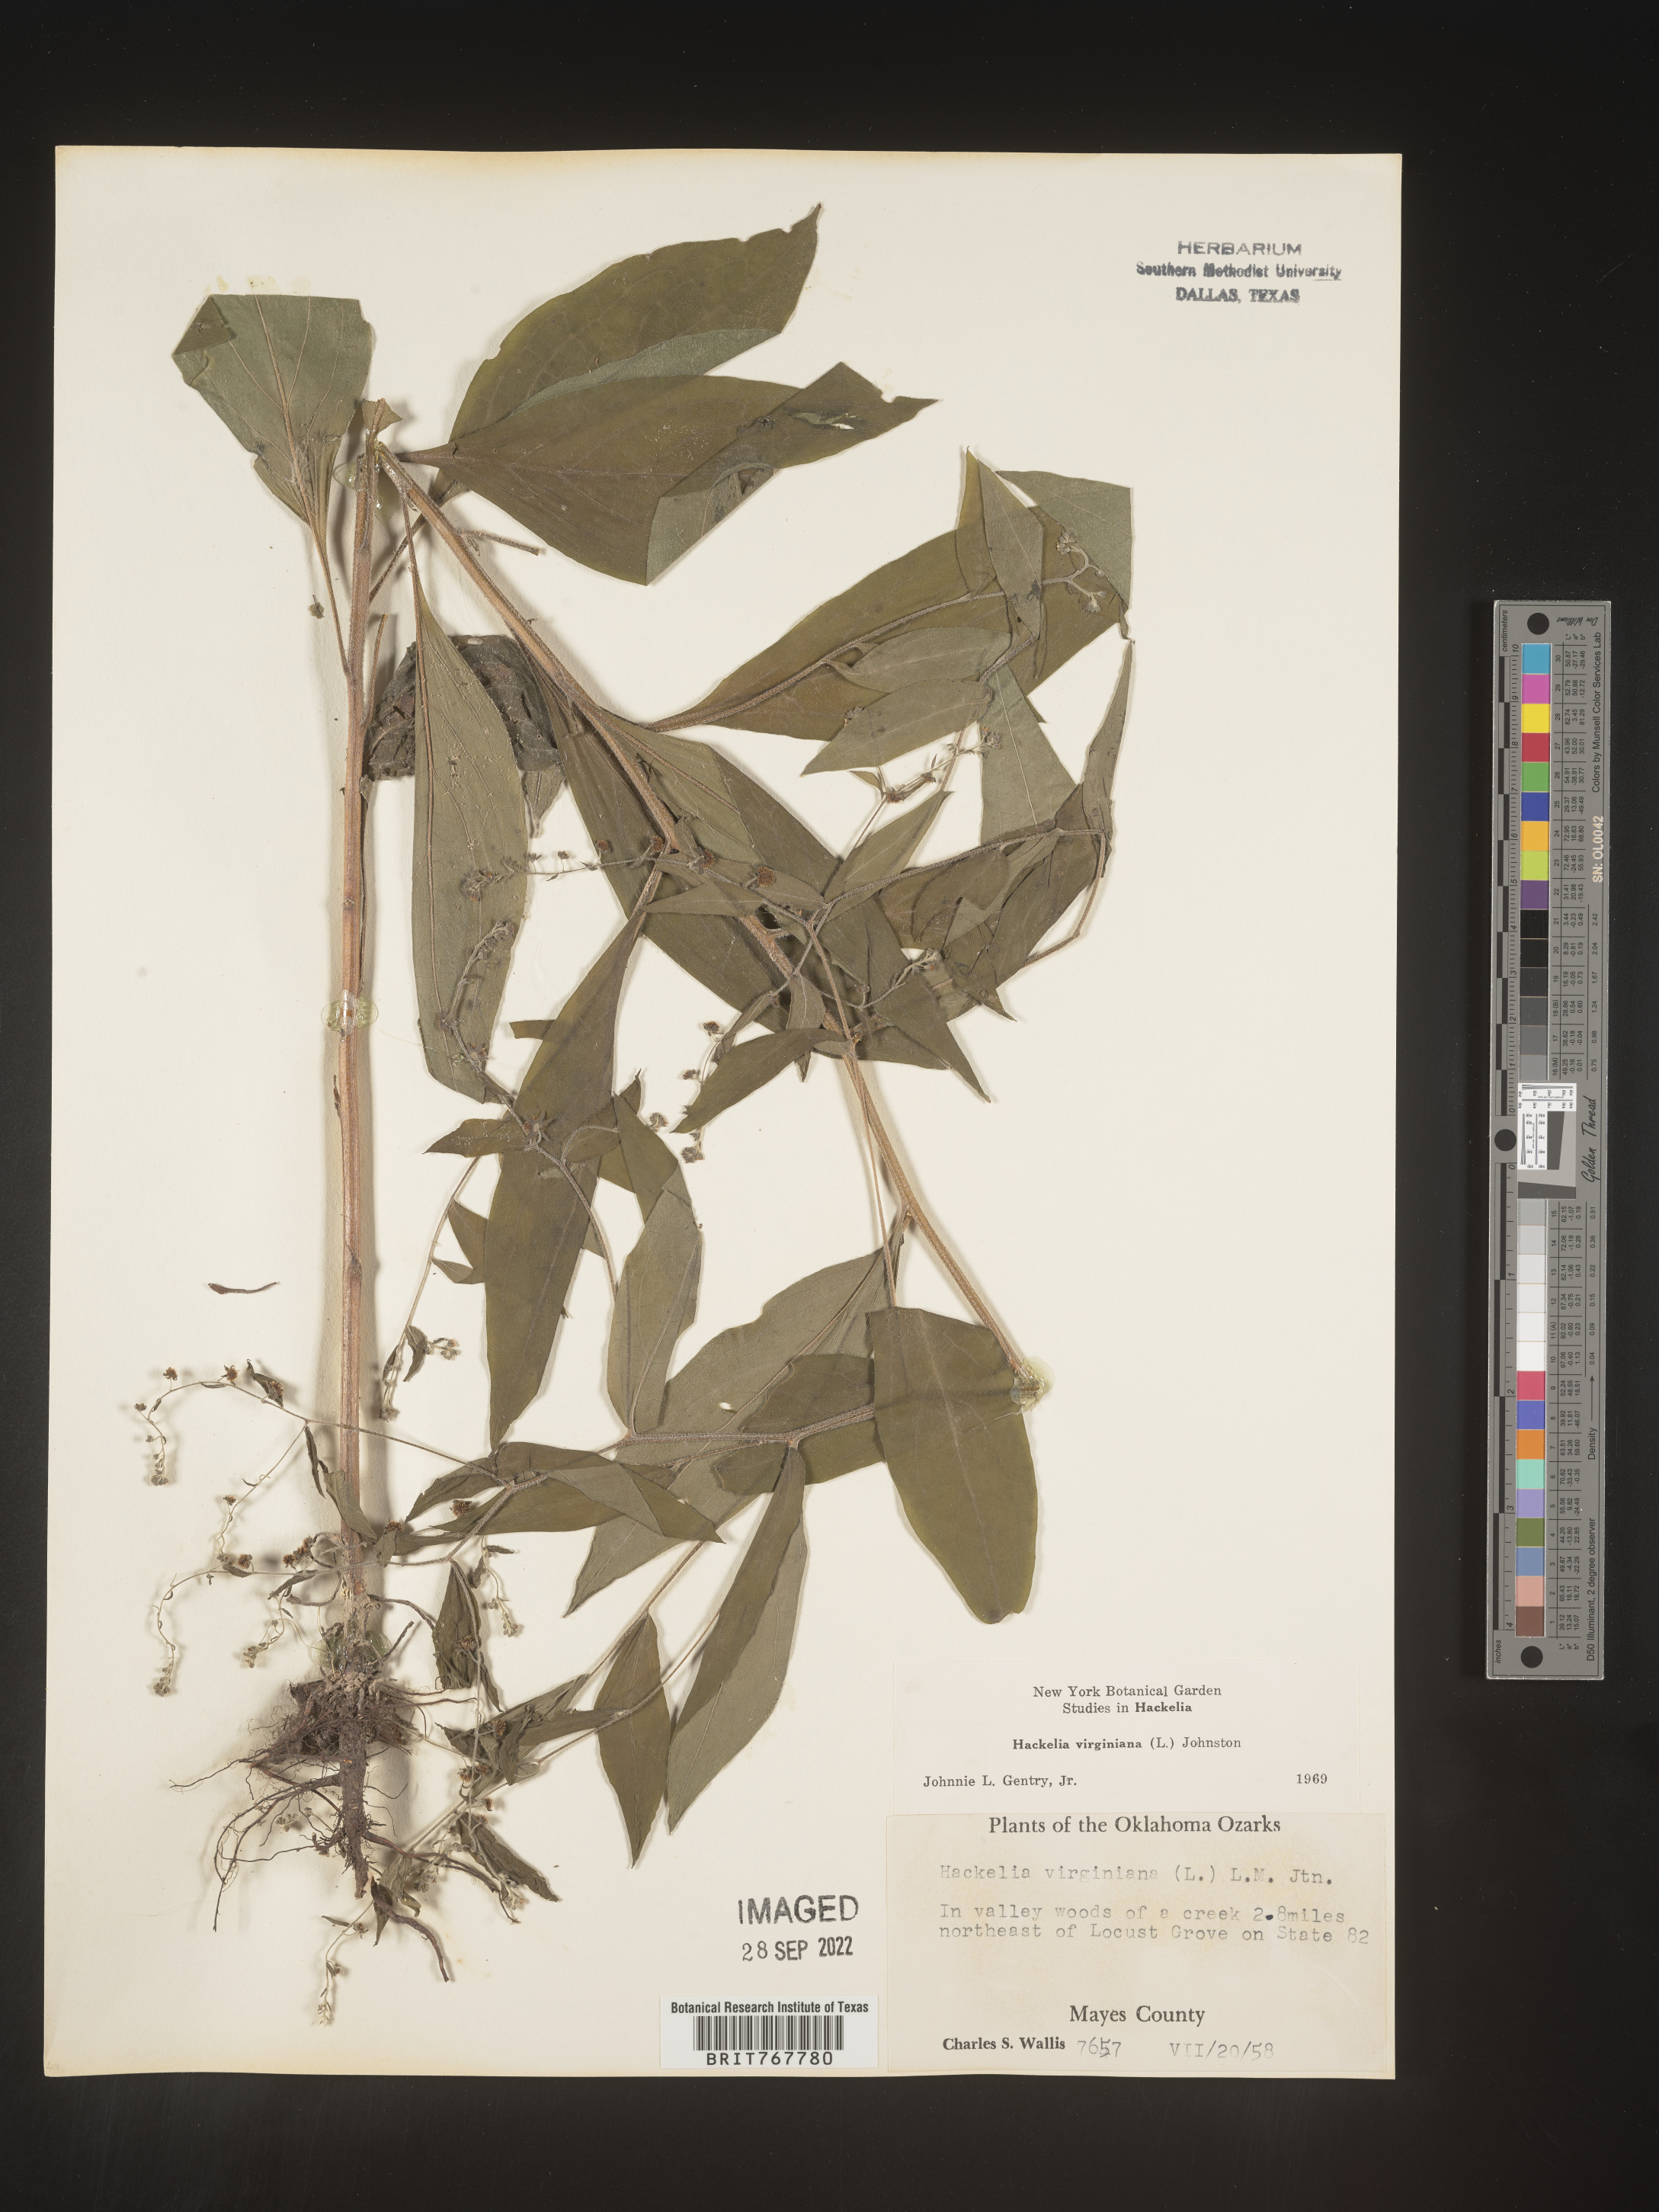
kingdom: Plantae
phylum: Tracheophyta
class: Magnoliopsida
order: Boraginales
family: Boraginaceae
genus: Hackelia
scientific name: Hackelia virginiana
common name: Beggar's-lice
